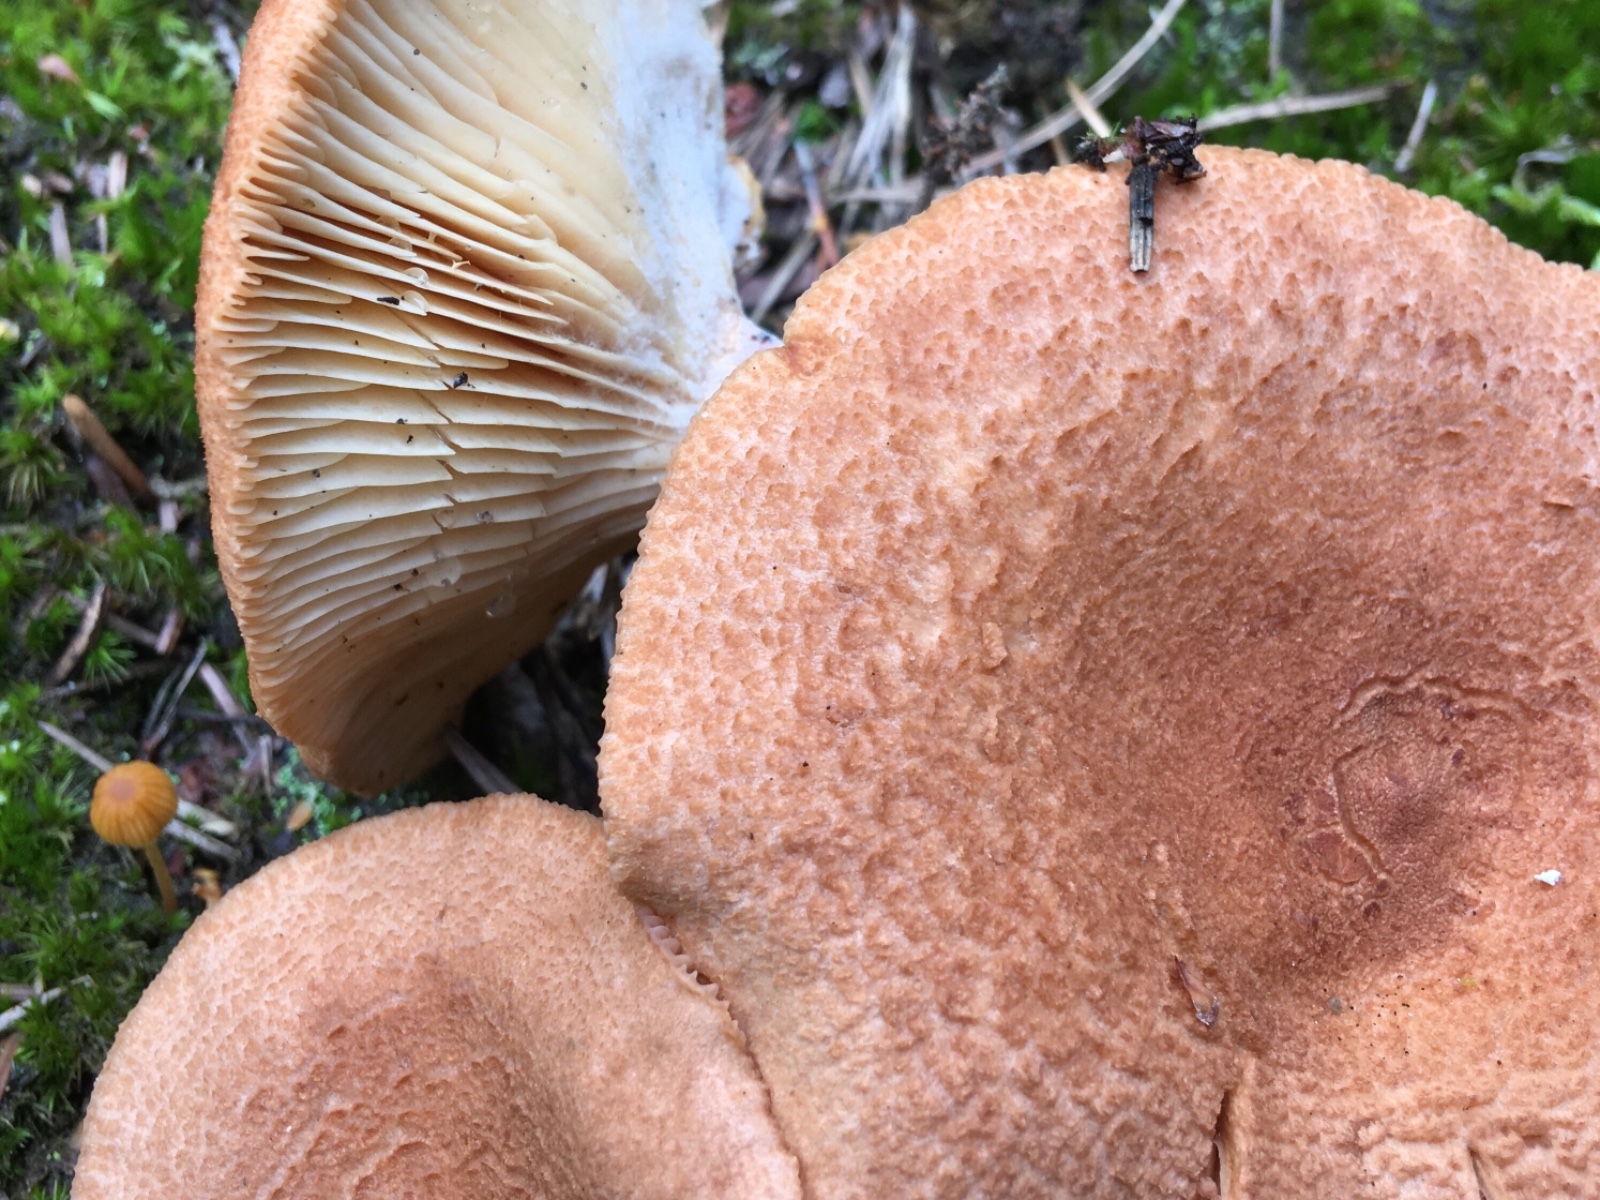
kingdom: Fungi
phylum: Basidiomycota
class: Agaricomycetes
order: Russulales
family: Russulaceae
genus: Lactarius
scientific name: Lactarius helvus
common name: mose-mælkehat
